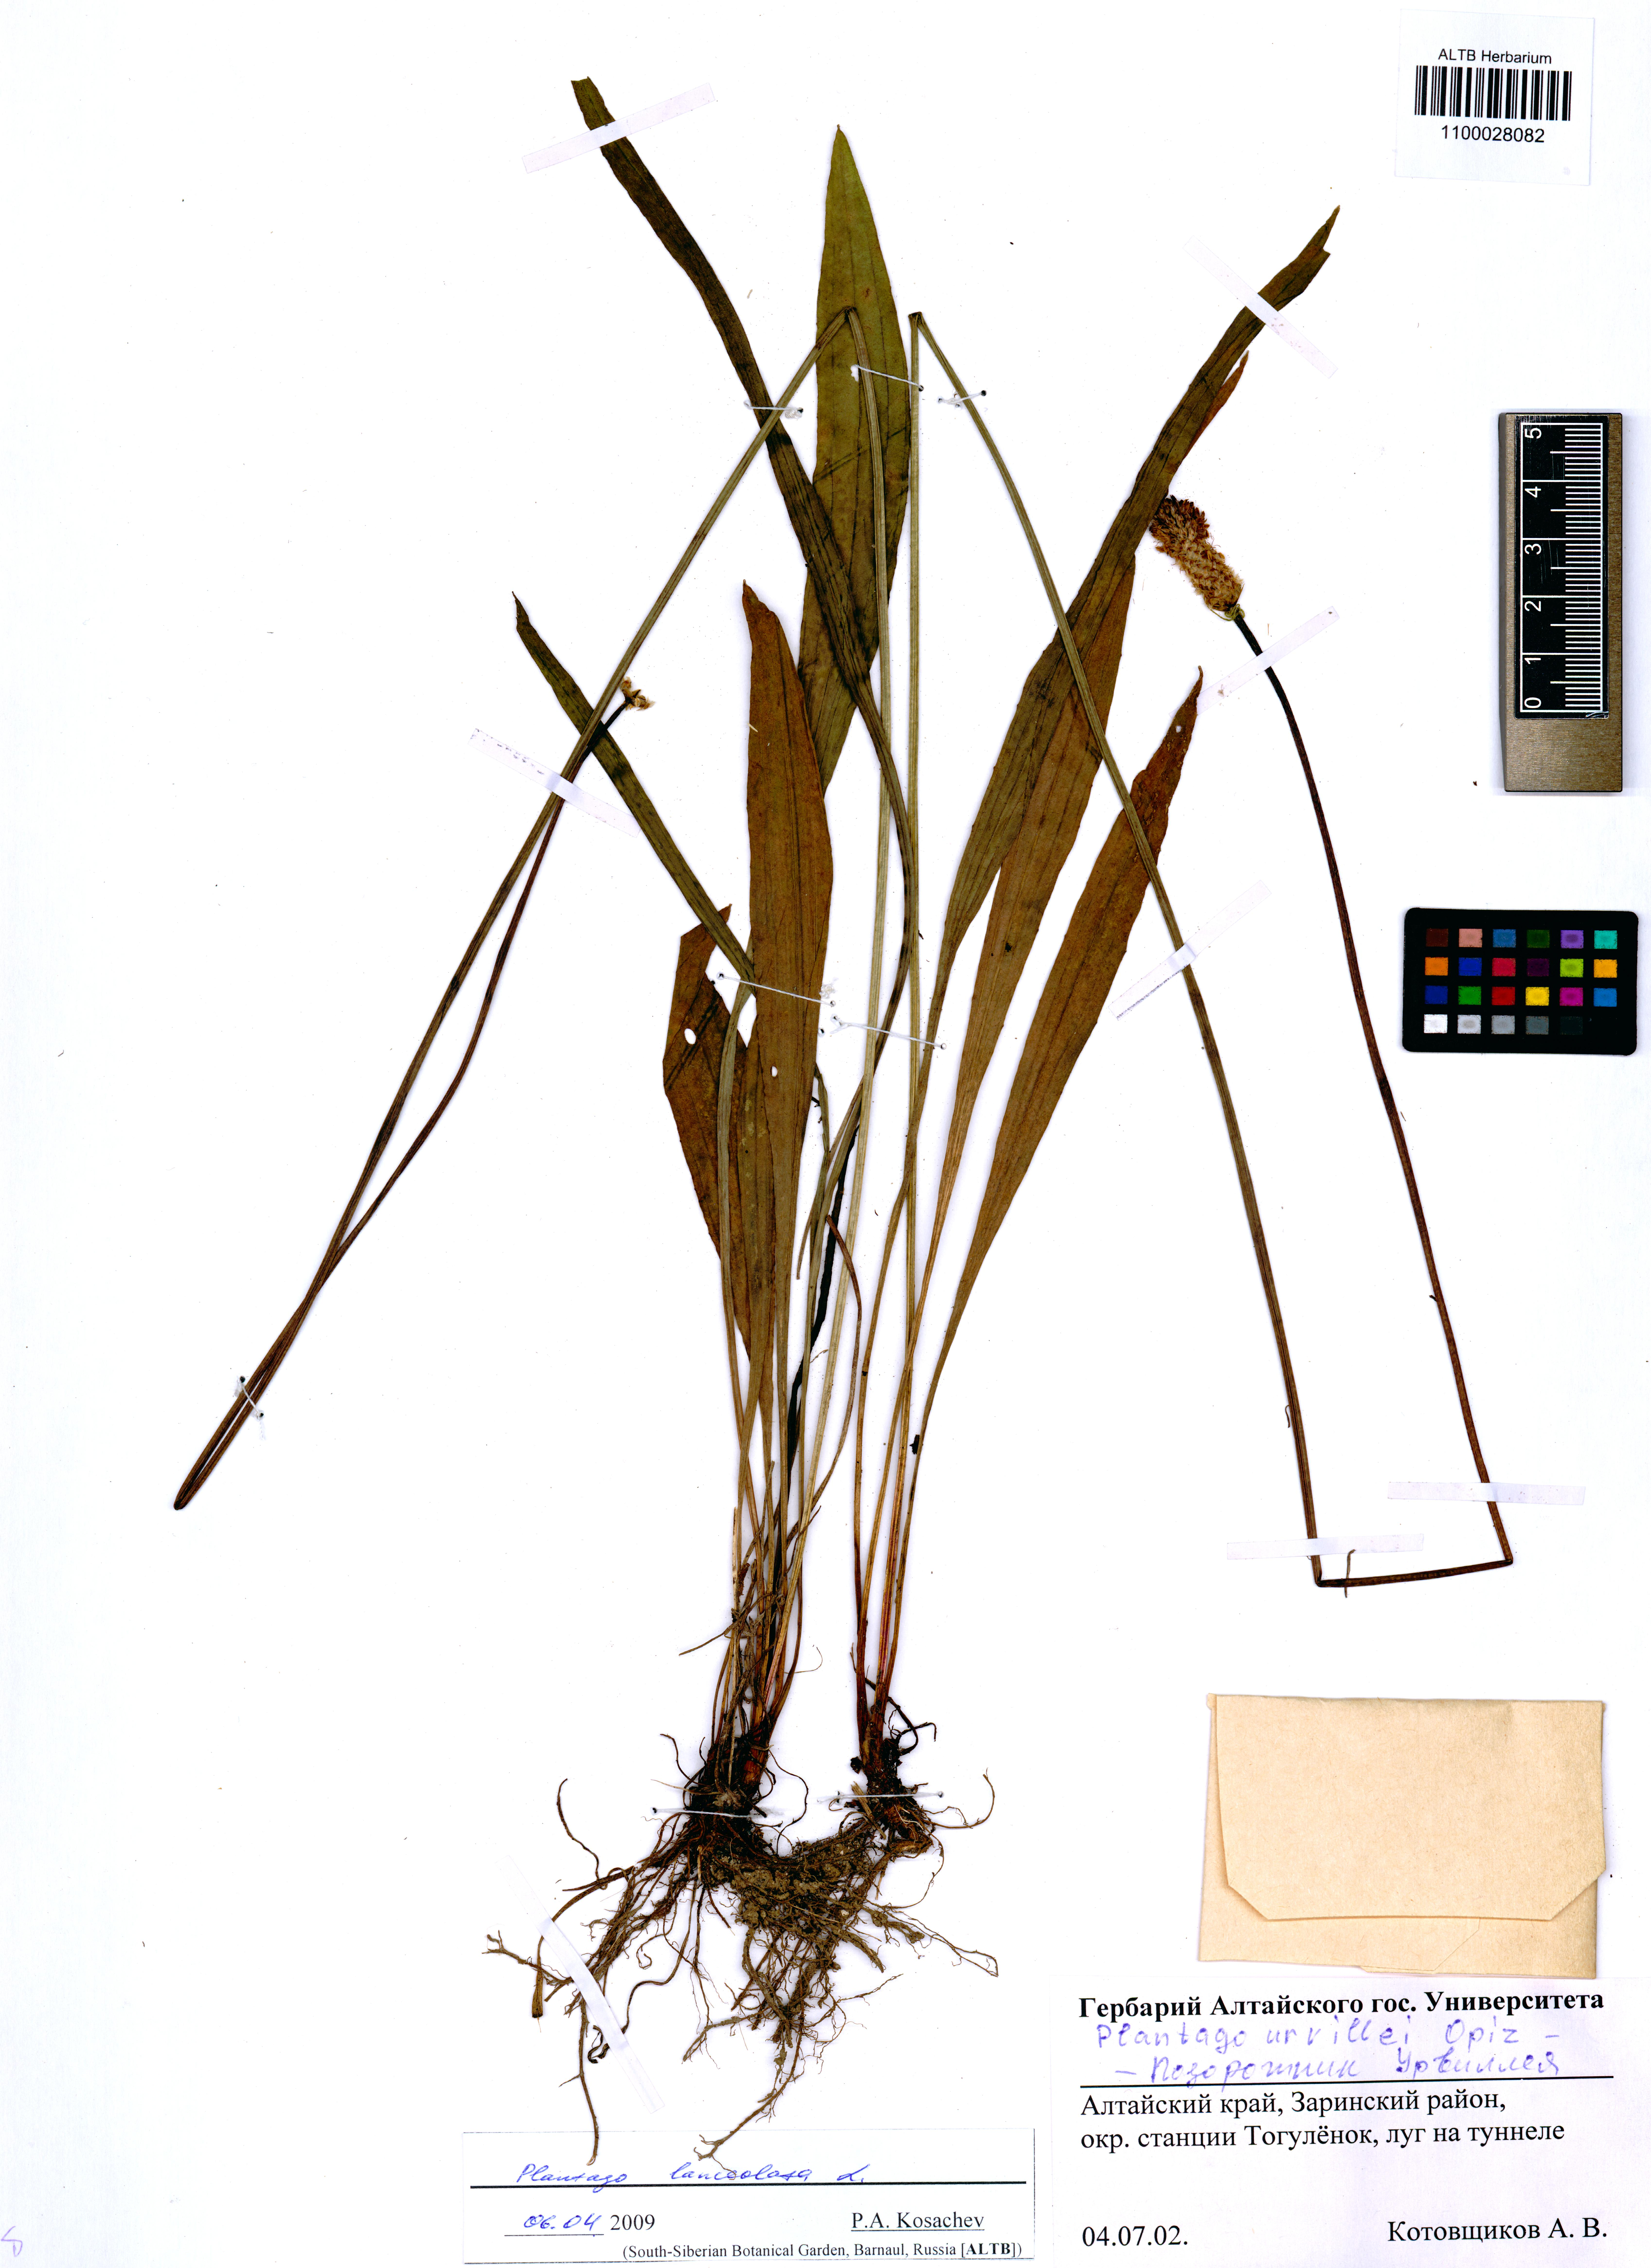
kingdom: Plantae
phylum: Tracheophyta
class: Magnoliopsida
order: Lamiales
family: Plantaginaceae
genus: Plantago
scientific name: Plantago lanceolata
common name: Ribwort plantain
